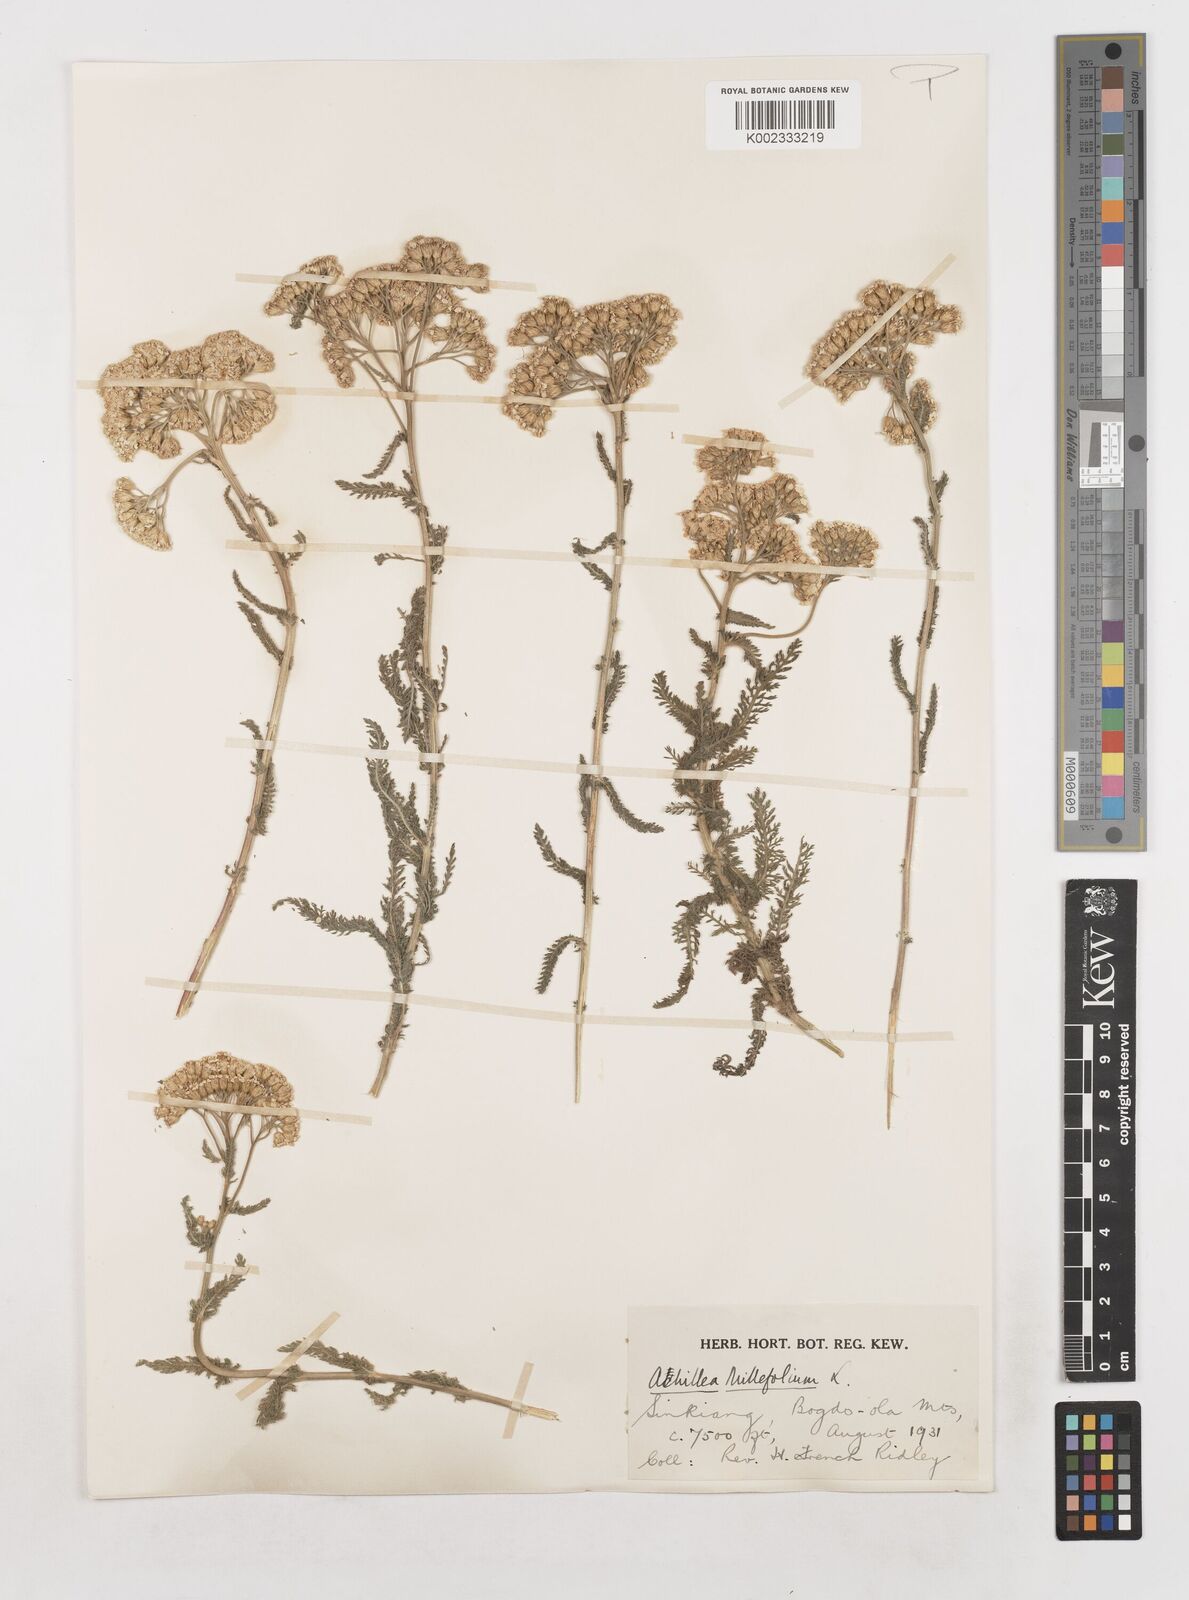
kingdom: Plantae
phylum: Tracheophyta
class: Magnoliopsida
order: Asterales
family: Asteraceae
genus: Achillea
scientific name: Achillea millefolium
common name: Yarrow
